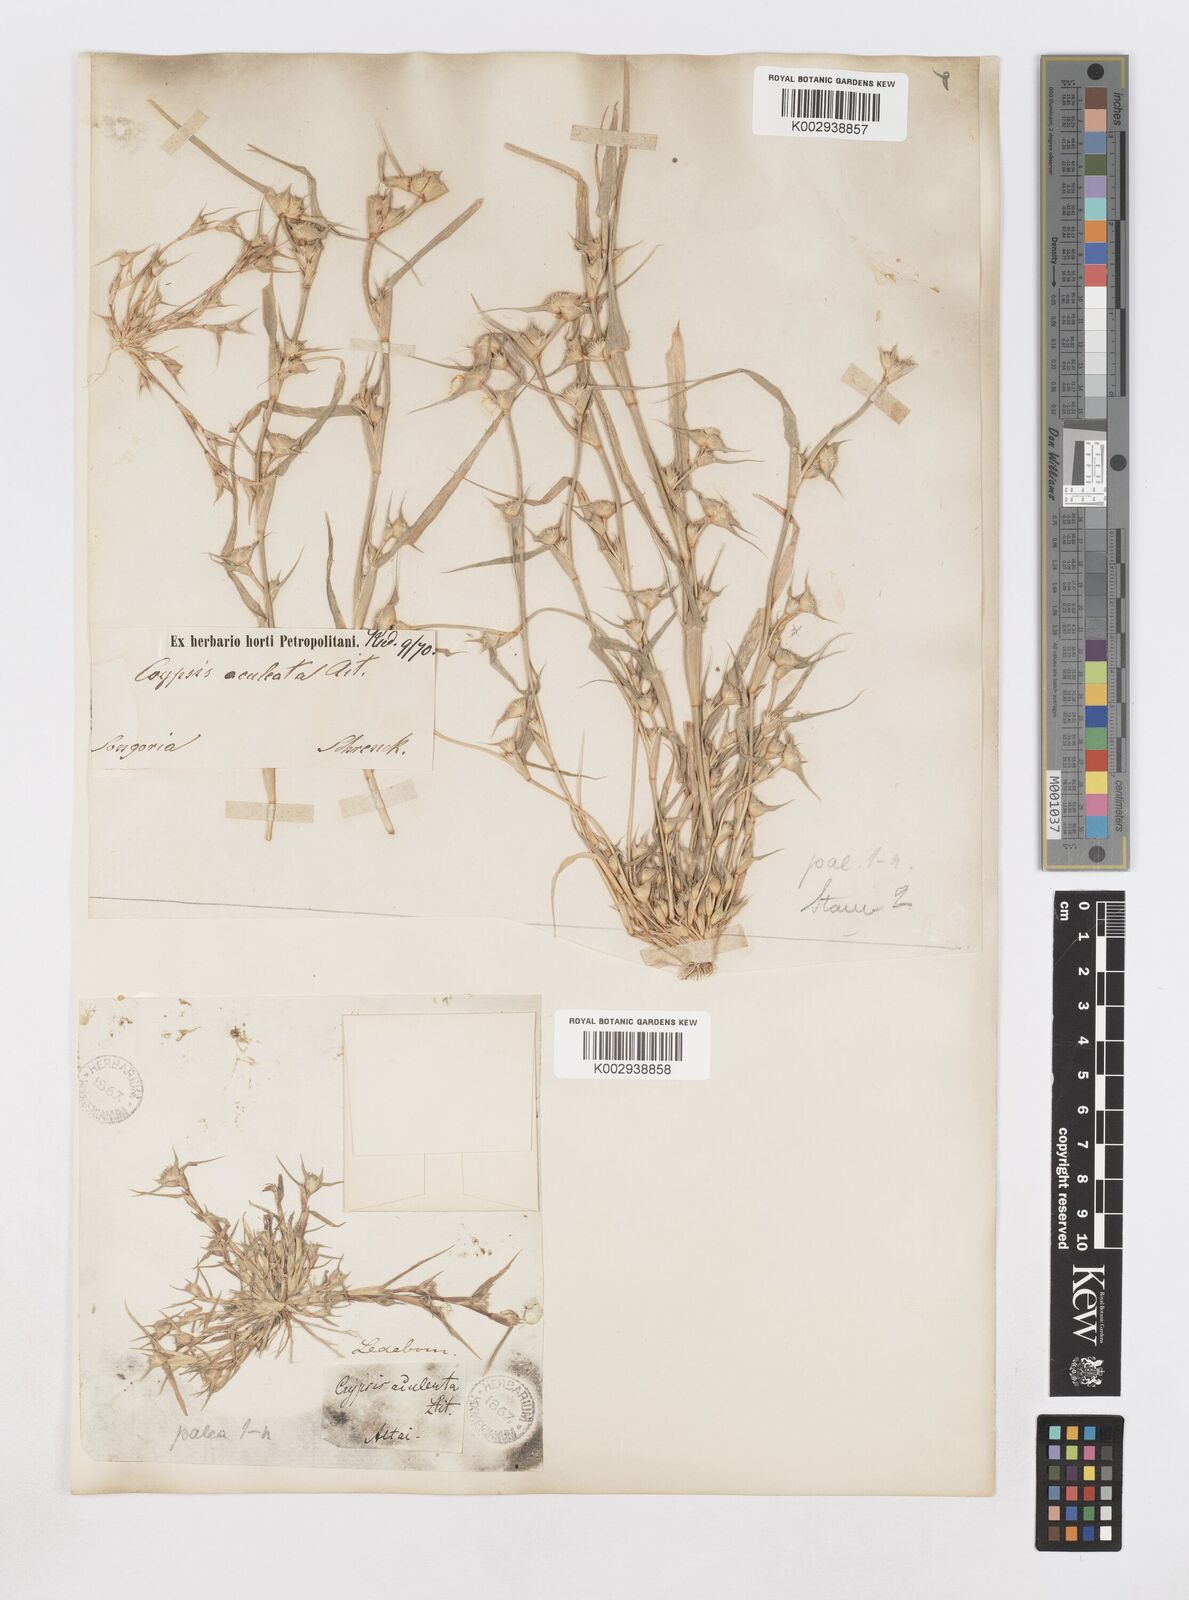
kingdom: Plantae
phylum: Tracheophyta
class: Liliopsida
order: Poales
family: Poaceae
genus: Sporobolus
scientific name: Sporobolus aculeatus
